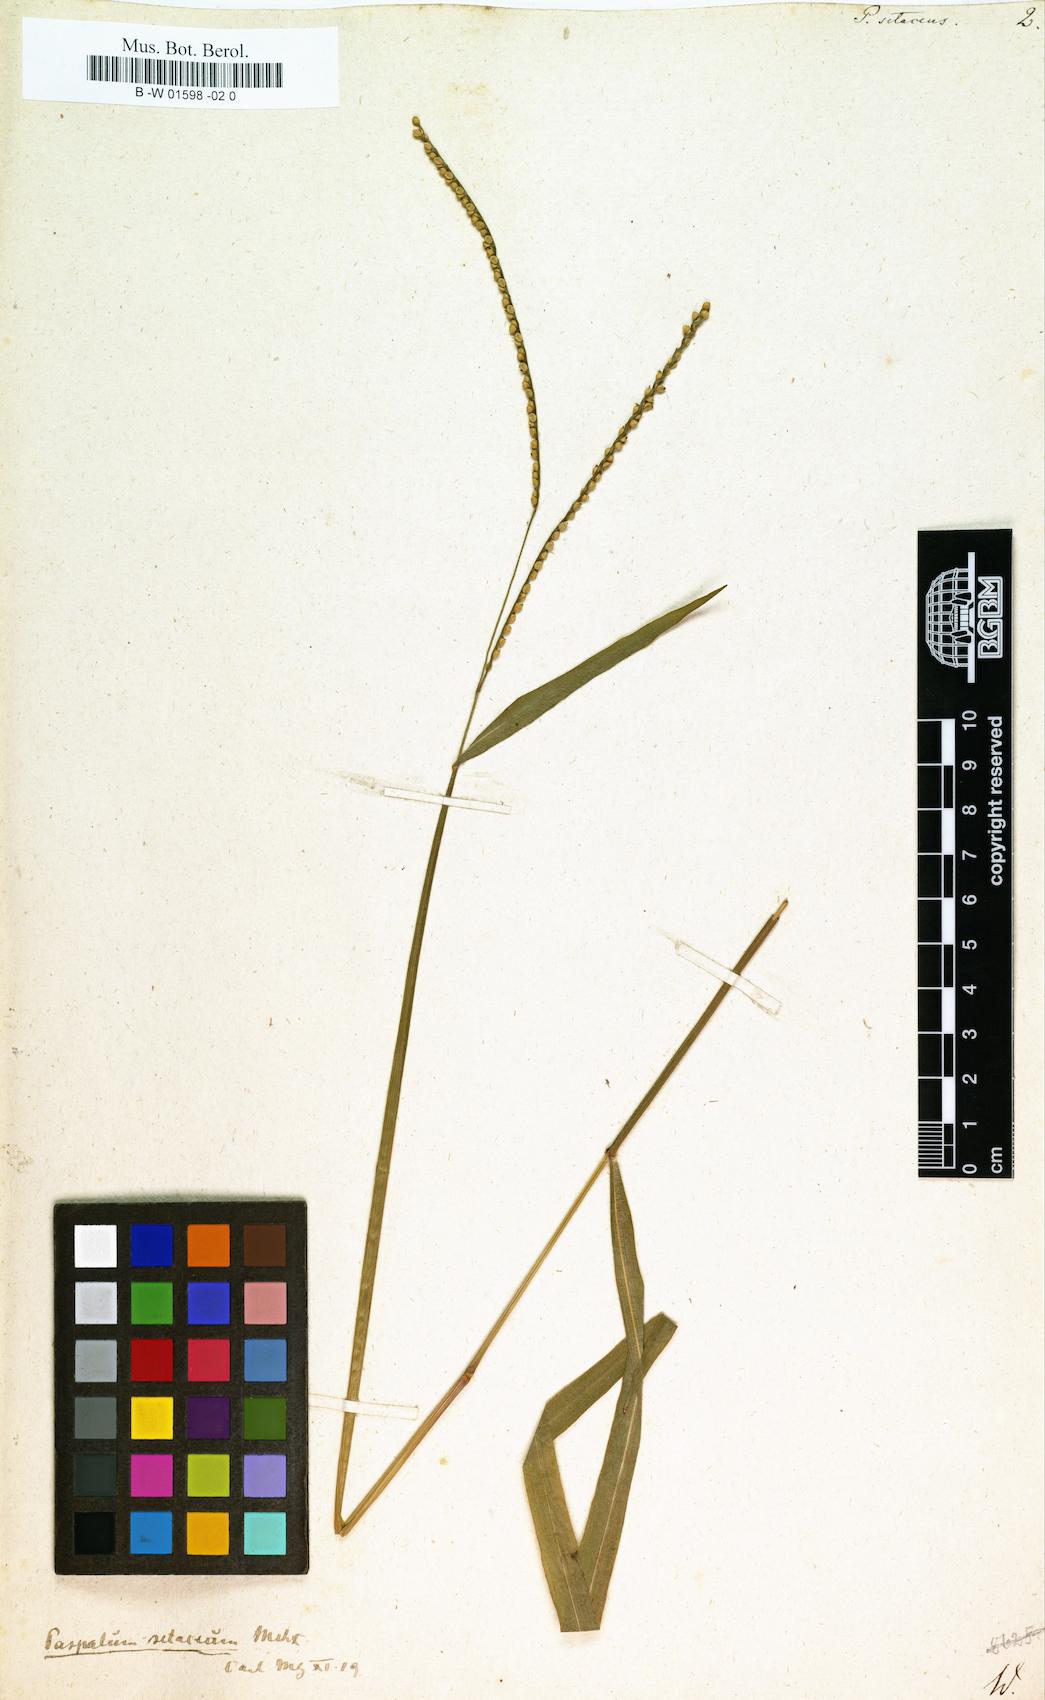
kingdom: Plantae
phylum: Tracheophyta
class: Liliopsida
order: Poales
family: Poaceae
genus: Paspalus
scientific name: Paspalus
